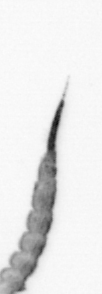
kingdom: Animalia
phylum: Annelida
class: Polychaeta
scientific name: Polychaeta
